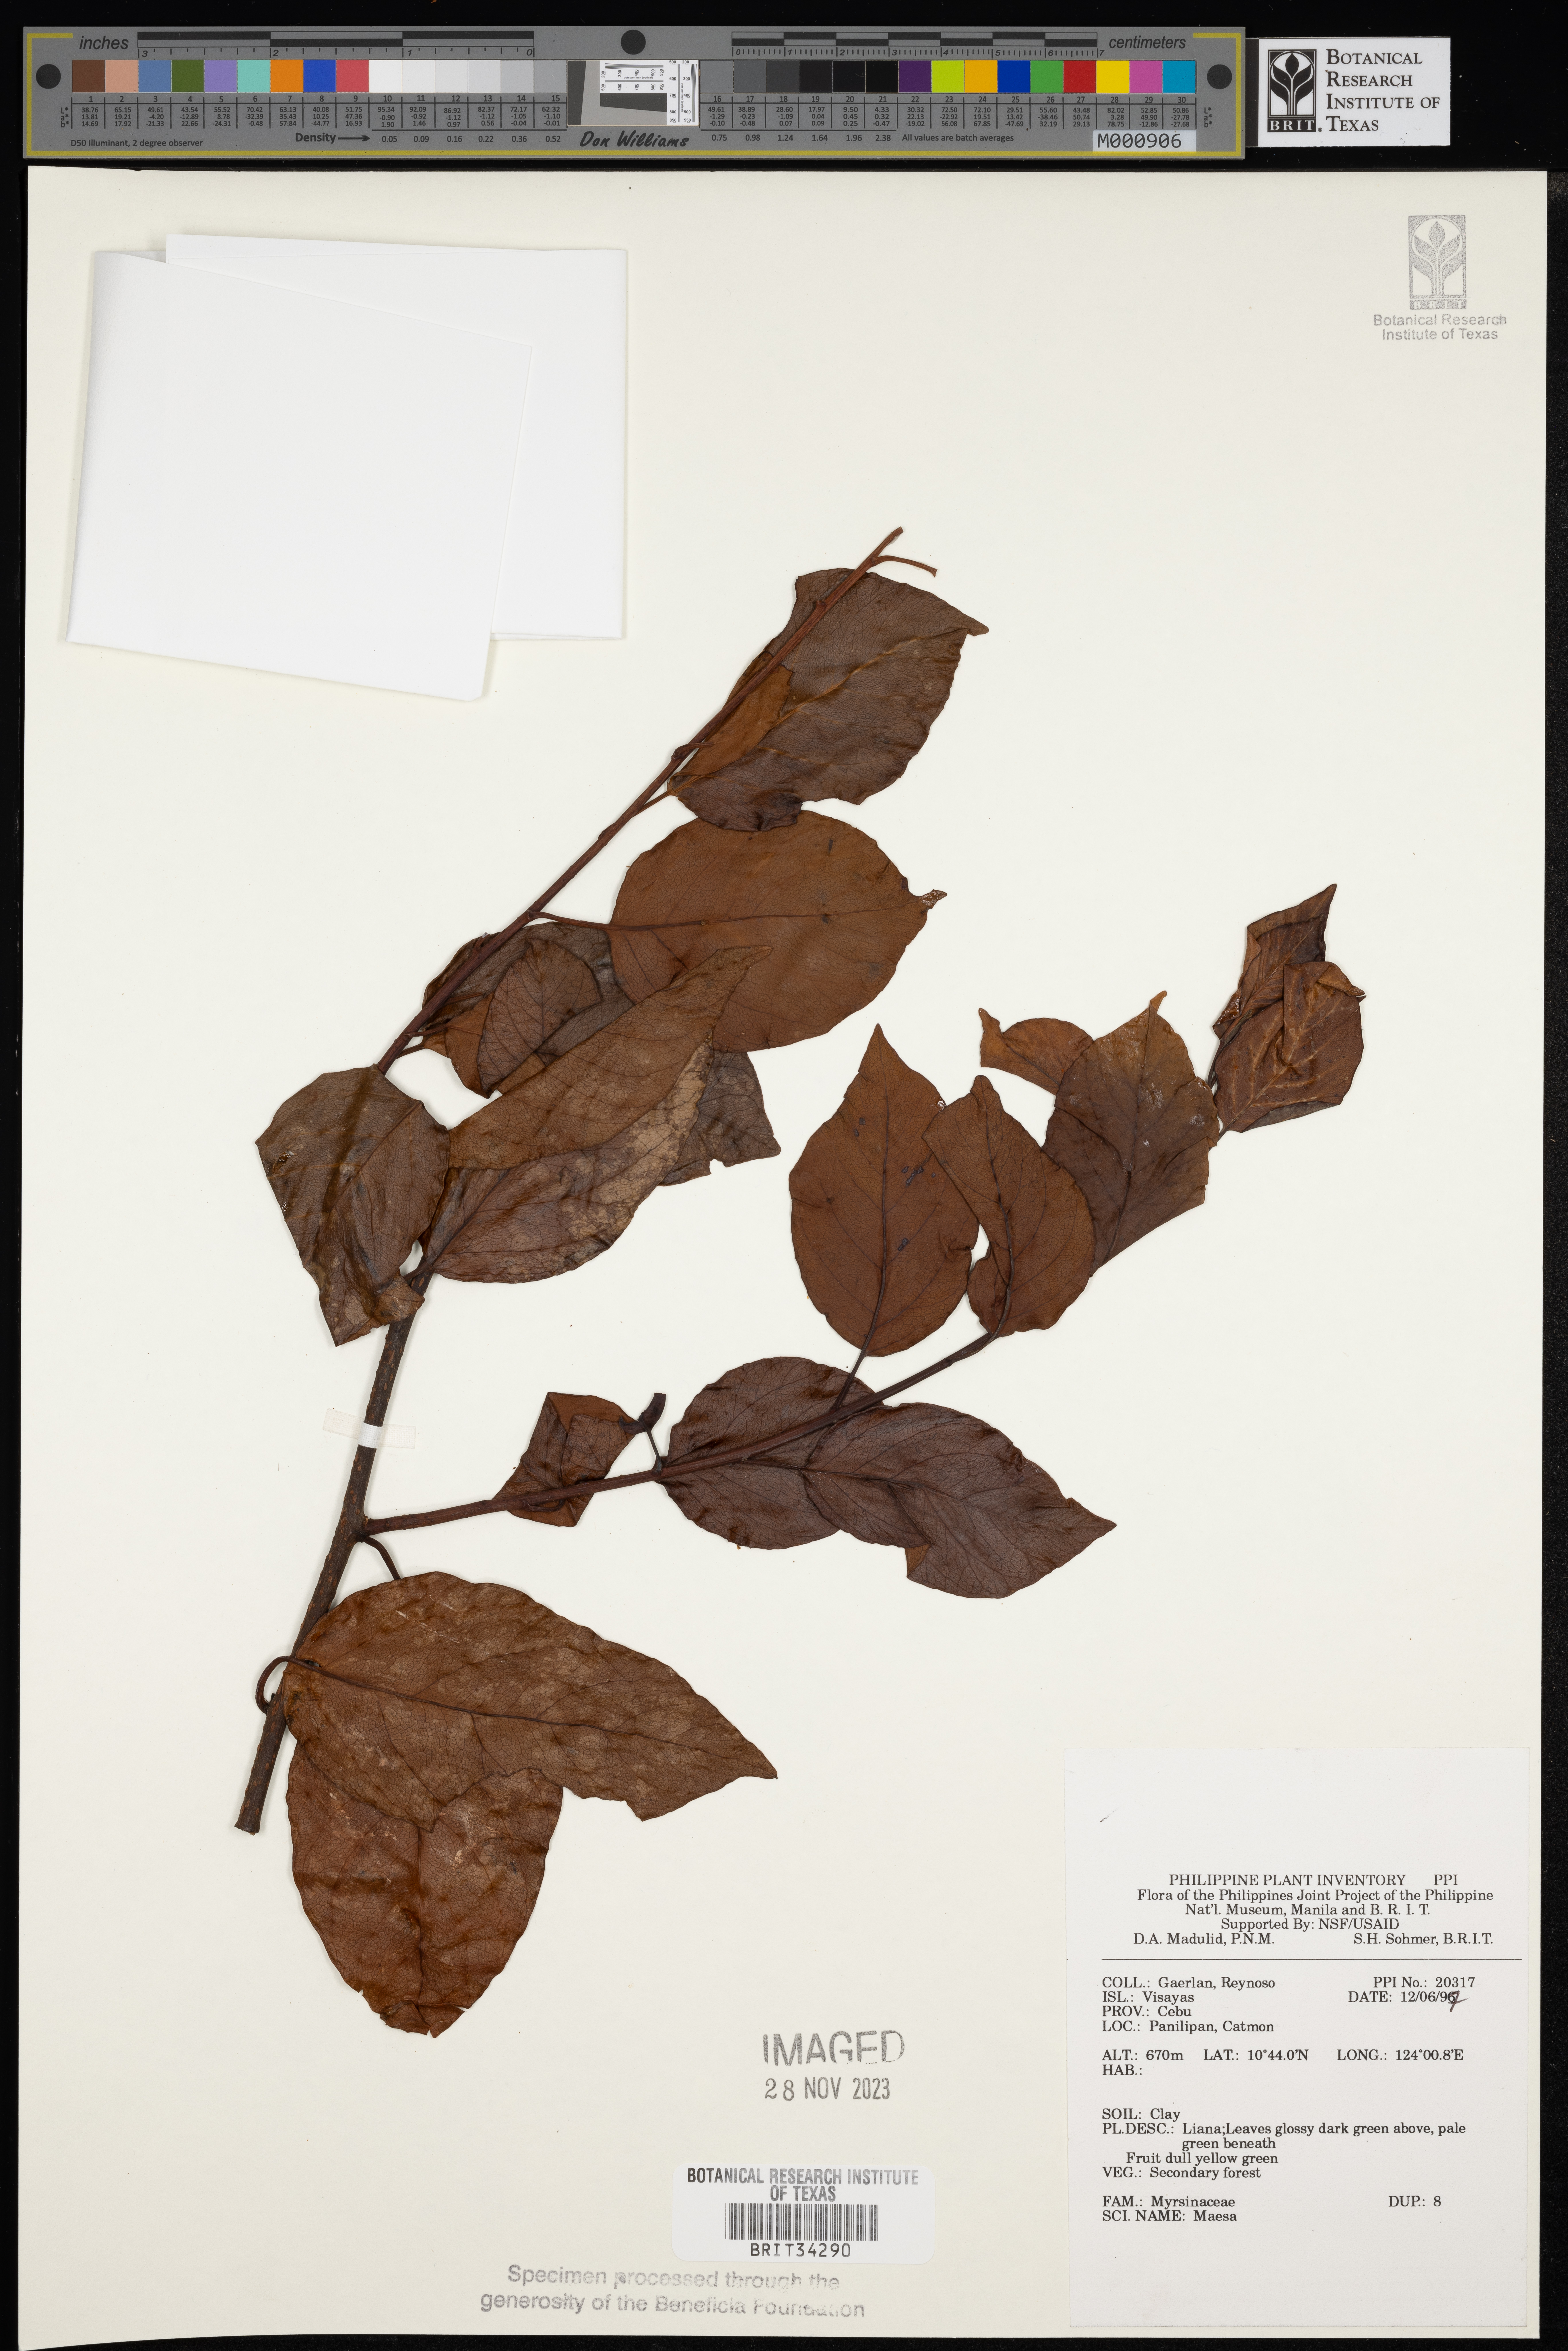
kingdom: Plantae
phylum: Tracheophyta
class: Magnoliopsida
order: Ericales
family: Primulaceae
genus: Maesa
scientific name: Maesa
